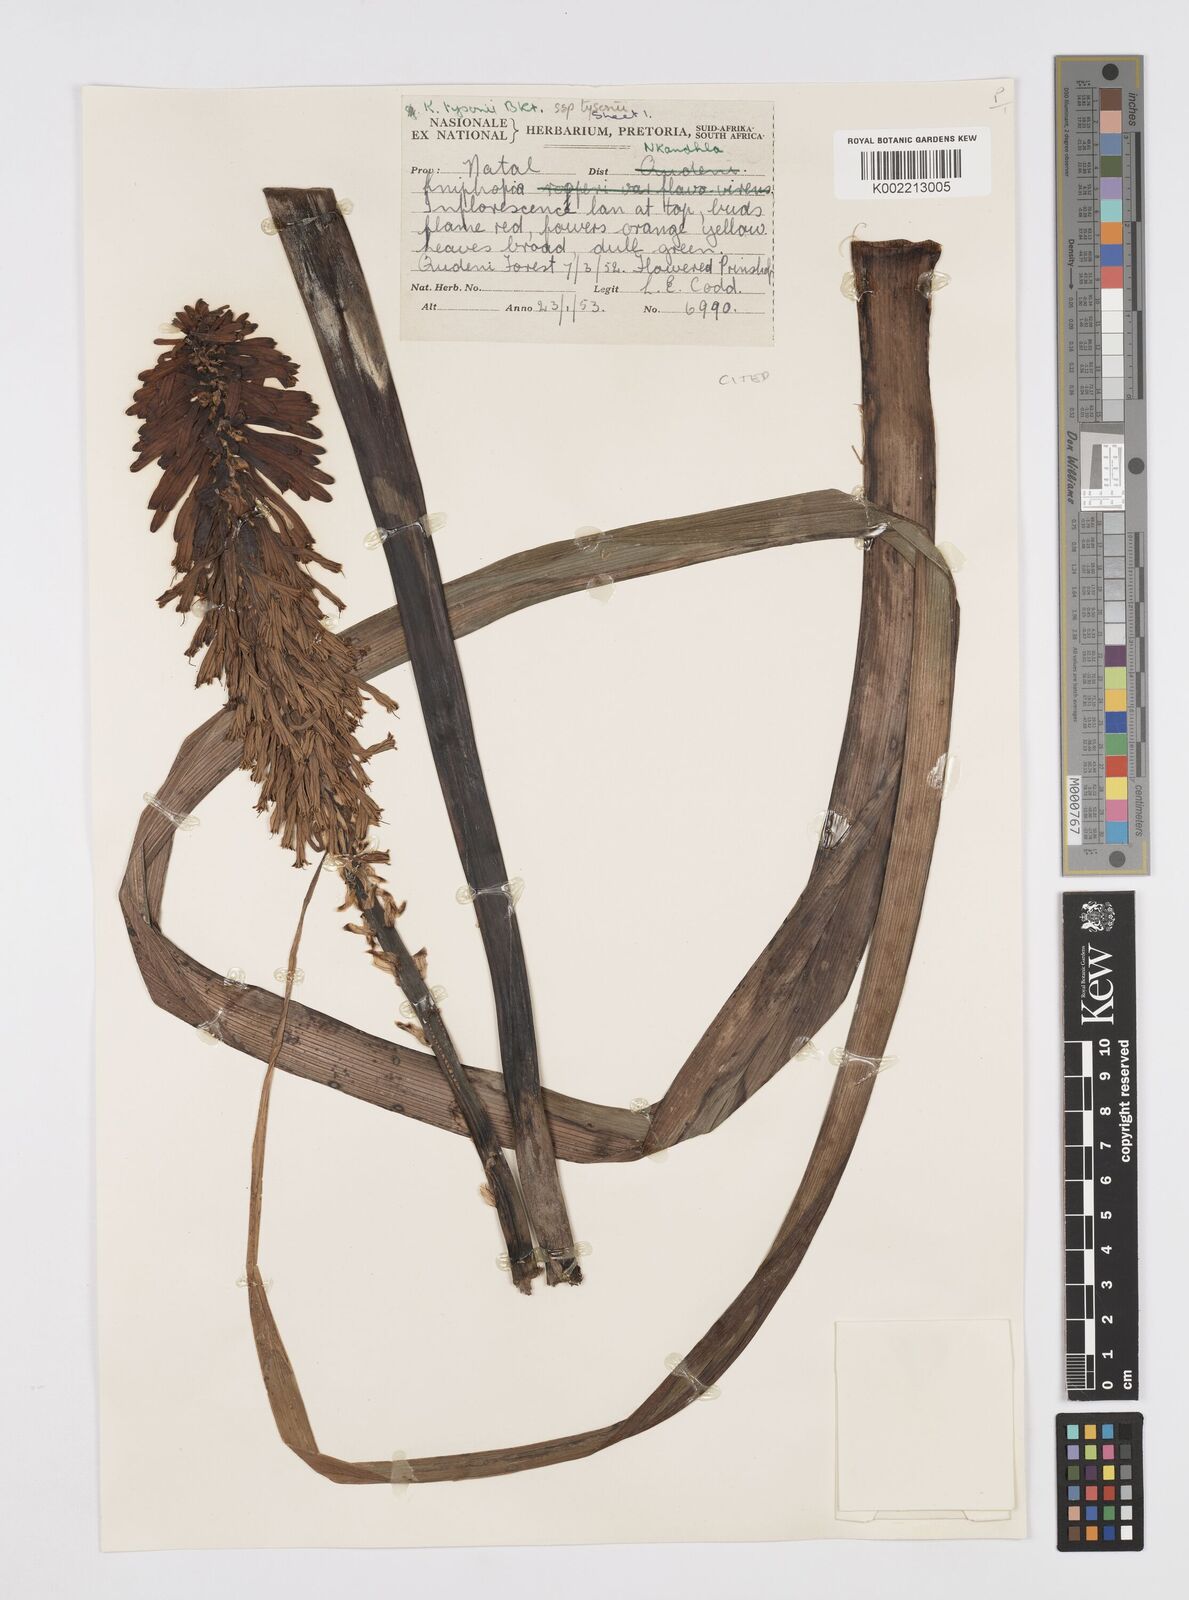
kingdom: Plantae
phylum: Tracheophyta
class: Liliopsida
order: Asparagales
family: Asphodelaceae
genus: Kniphofia
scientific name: Kniphofia tysonii
